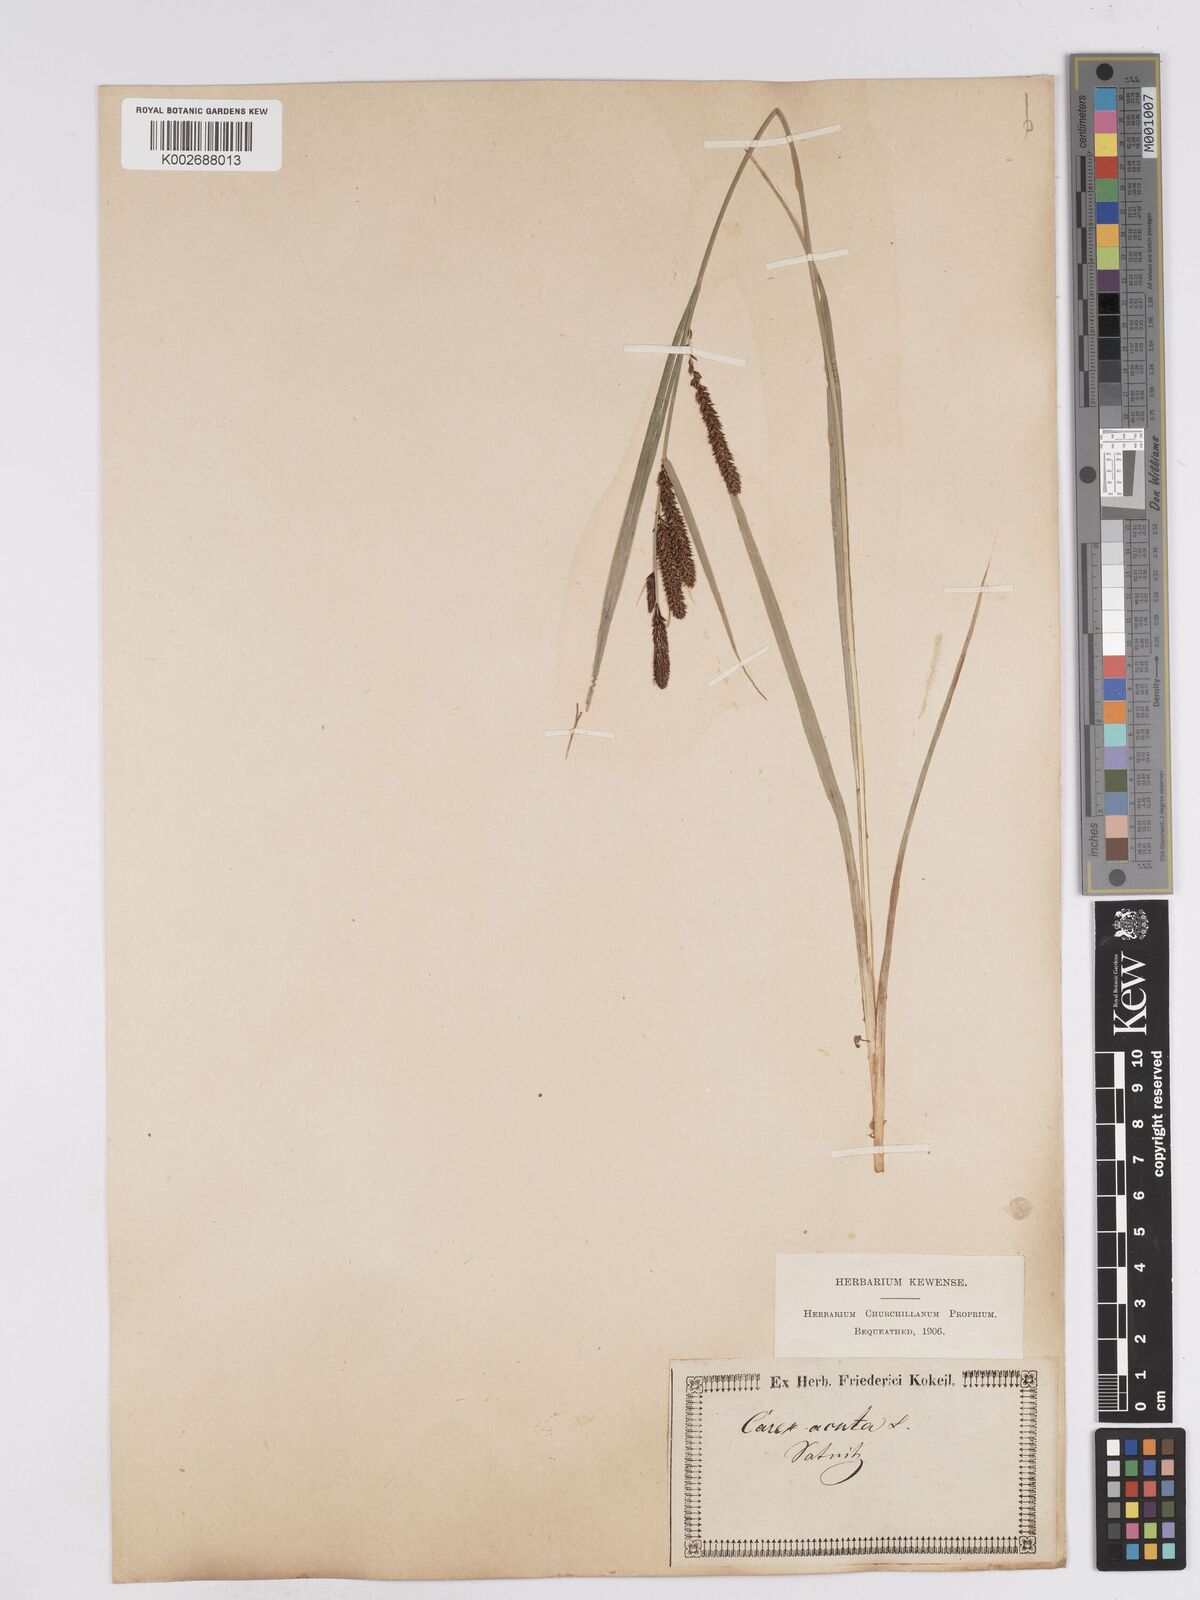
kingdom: Plantae
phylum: Tracheophyta
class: Liliopsida
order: Poales
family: Cyperaceae
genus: Carex
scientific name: Carex acuta
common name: Slender tufted-sedge
